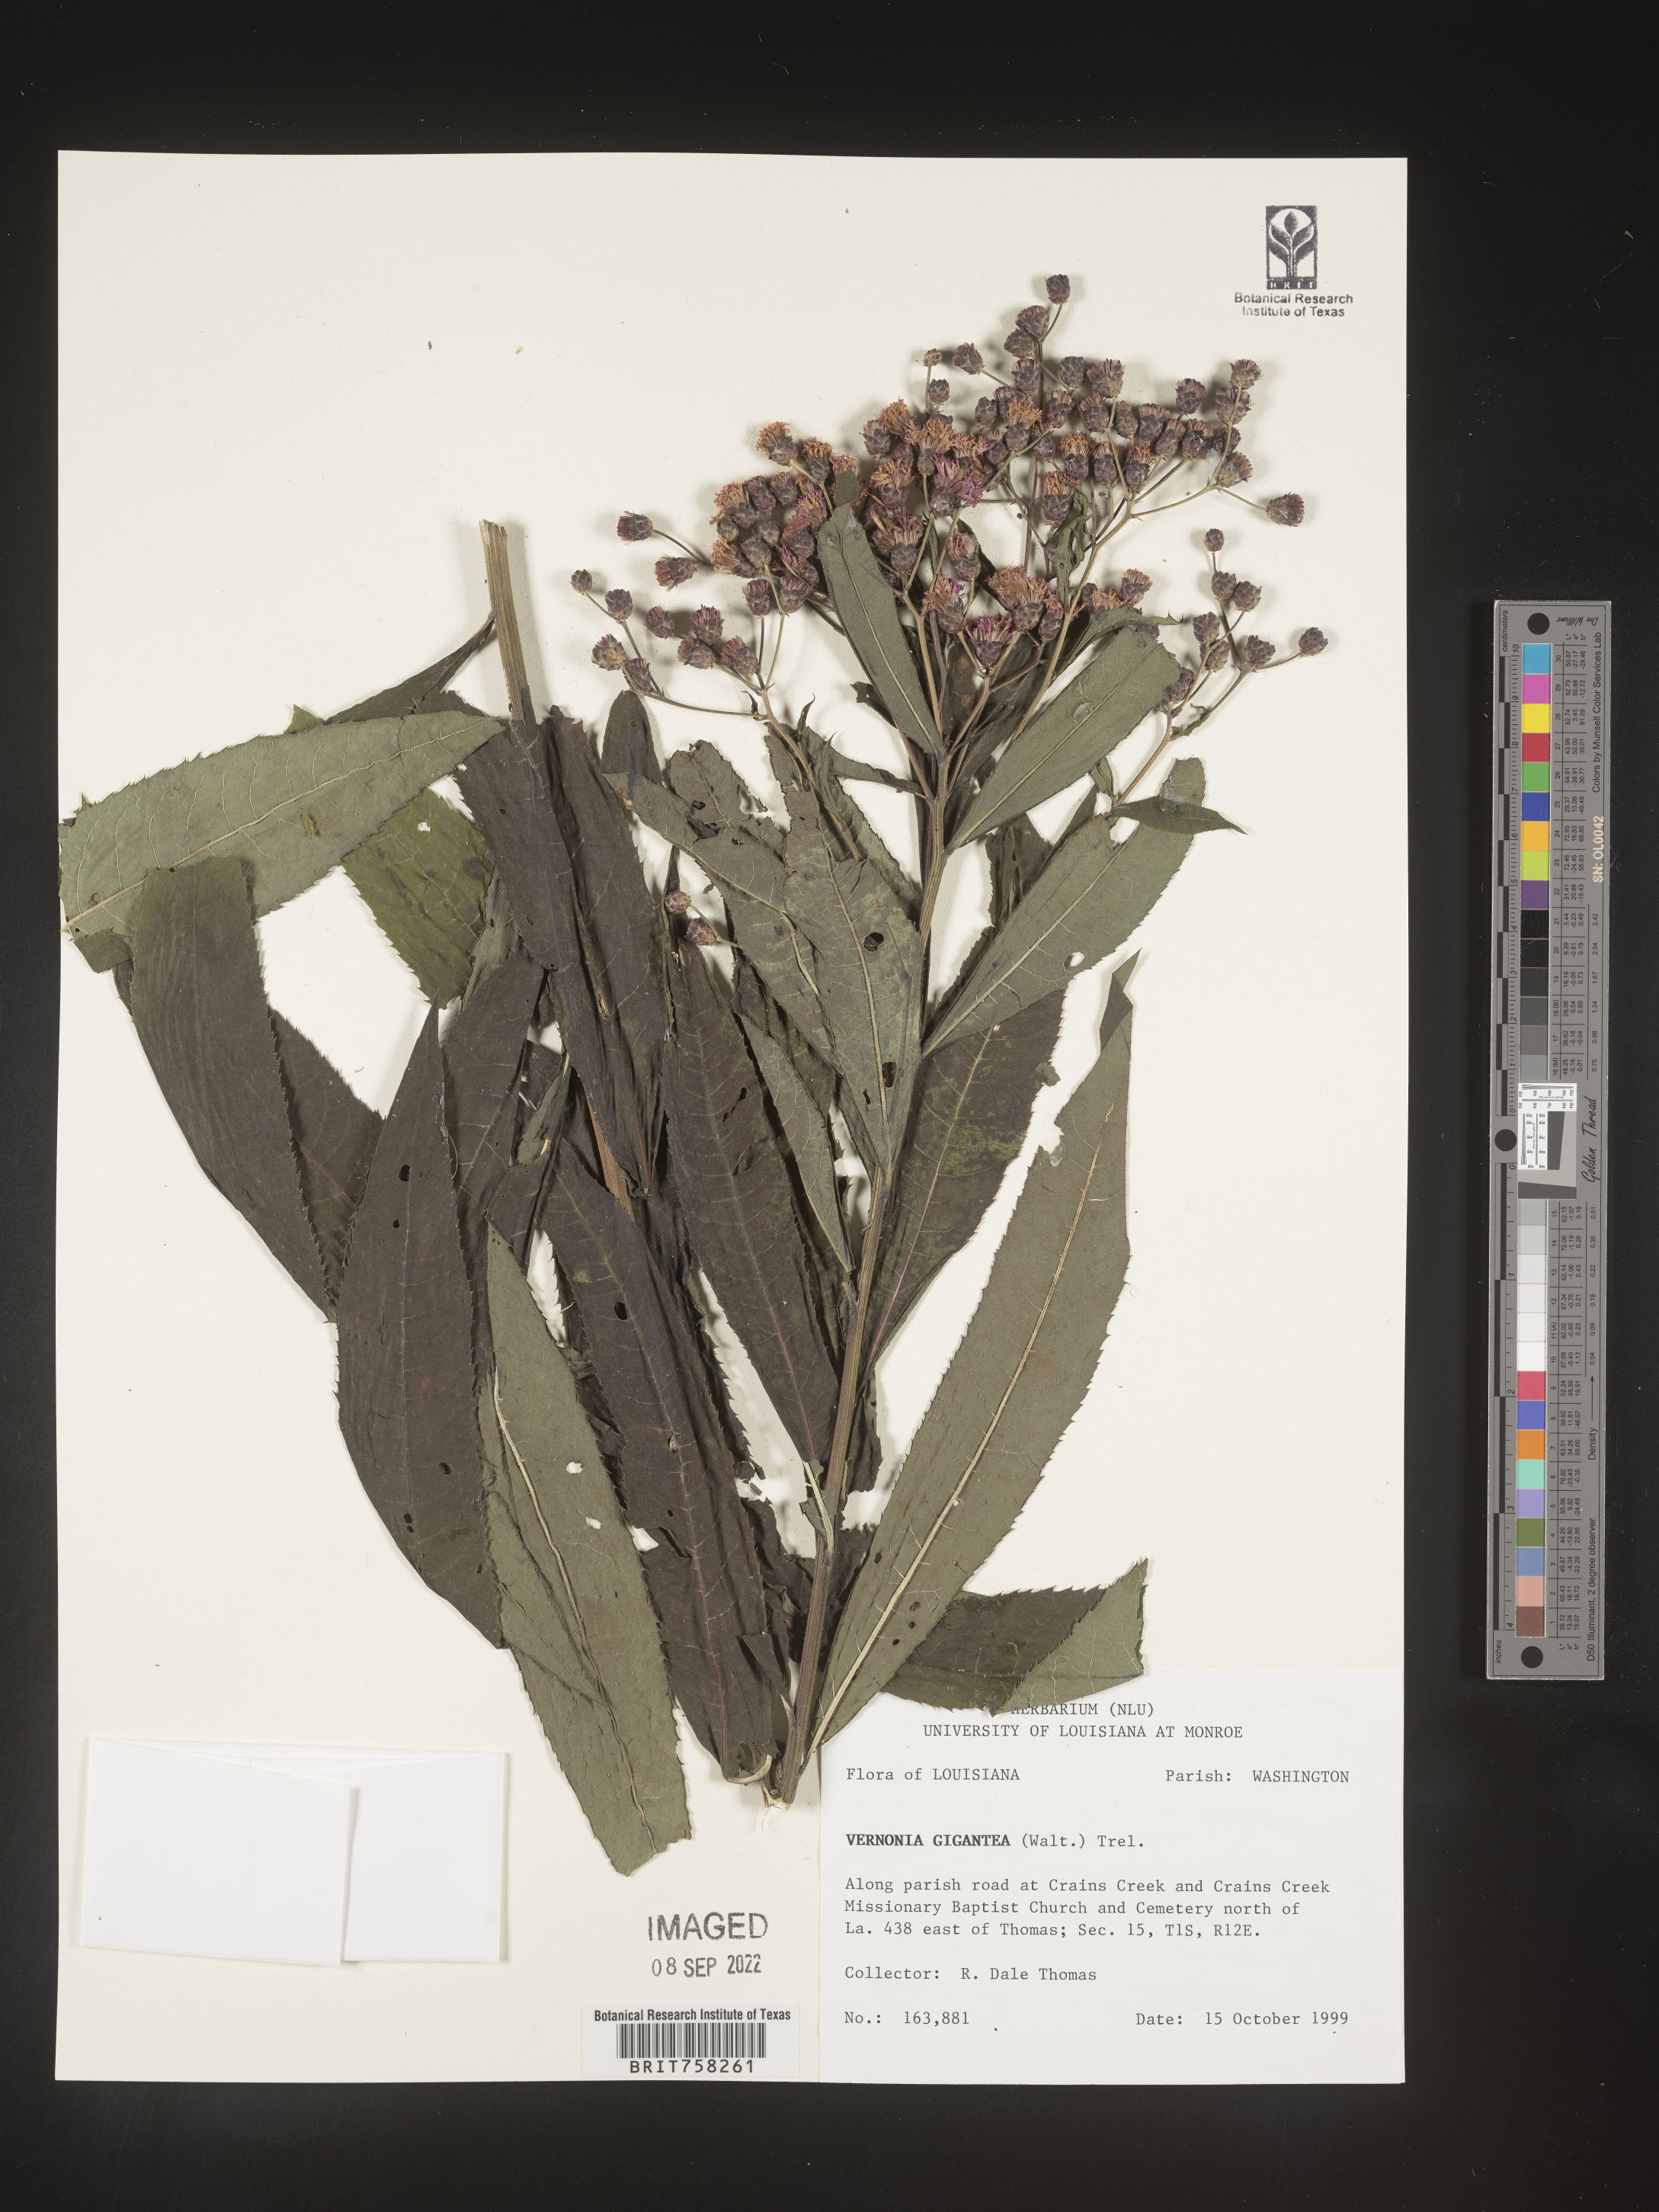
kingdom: Plantae
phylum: Tracheophyta
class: Magnoliopsida
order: Asterales
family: Asteraceae
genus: Vernonia
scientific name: Vernonia gigantea
